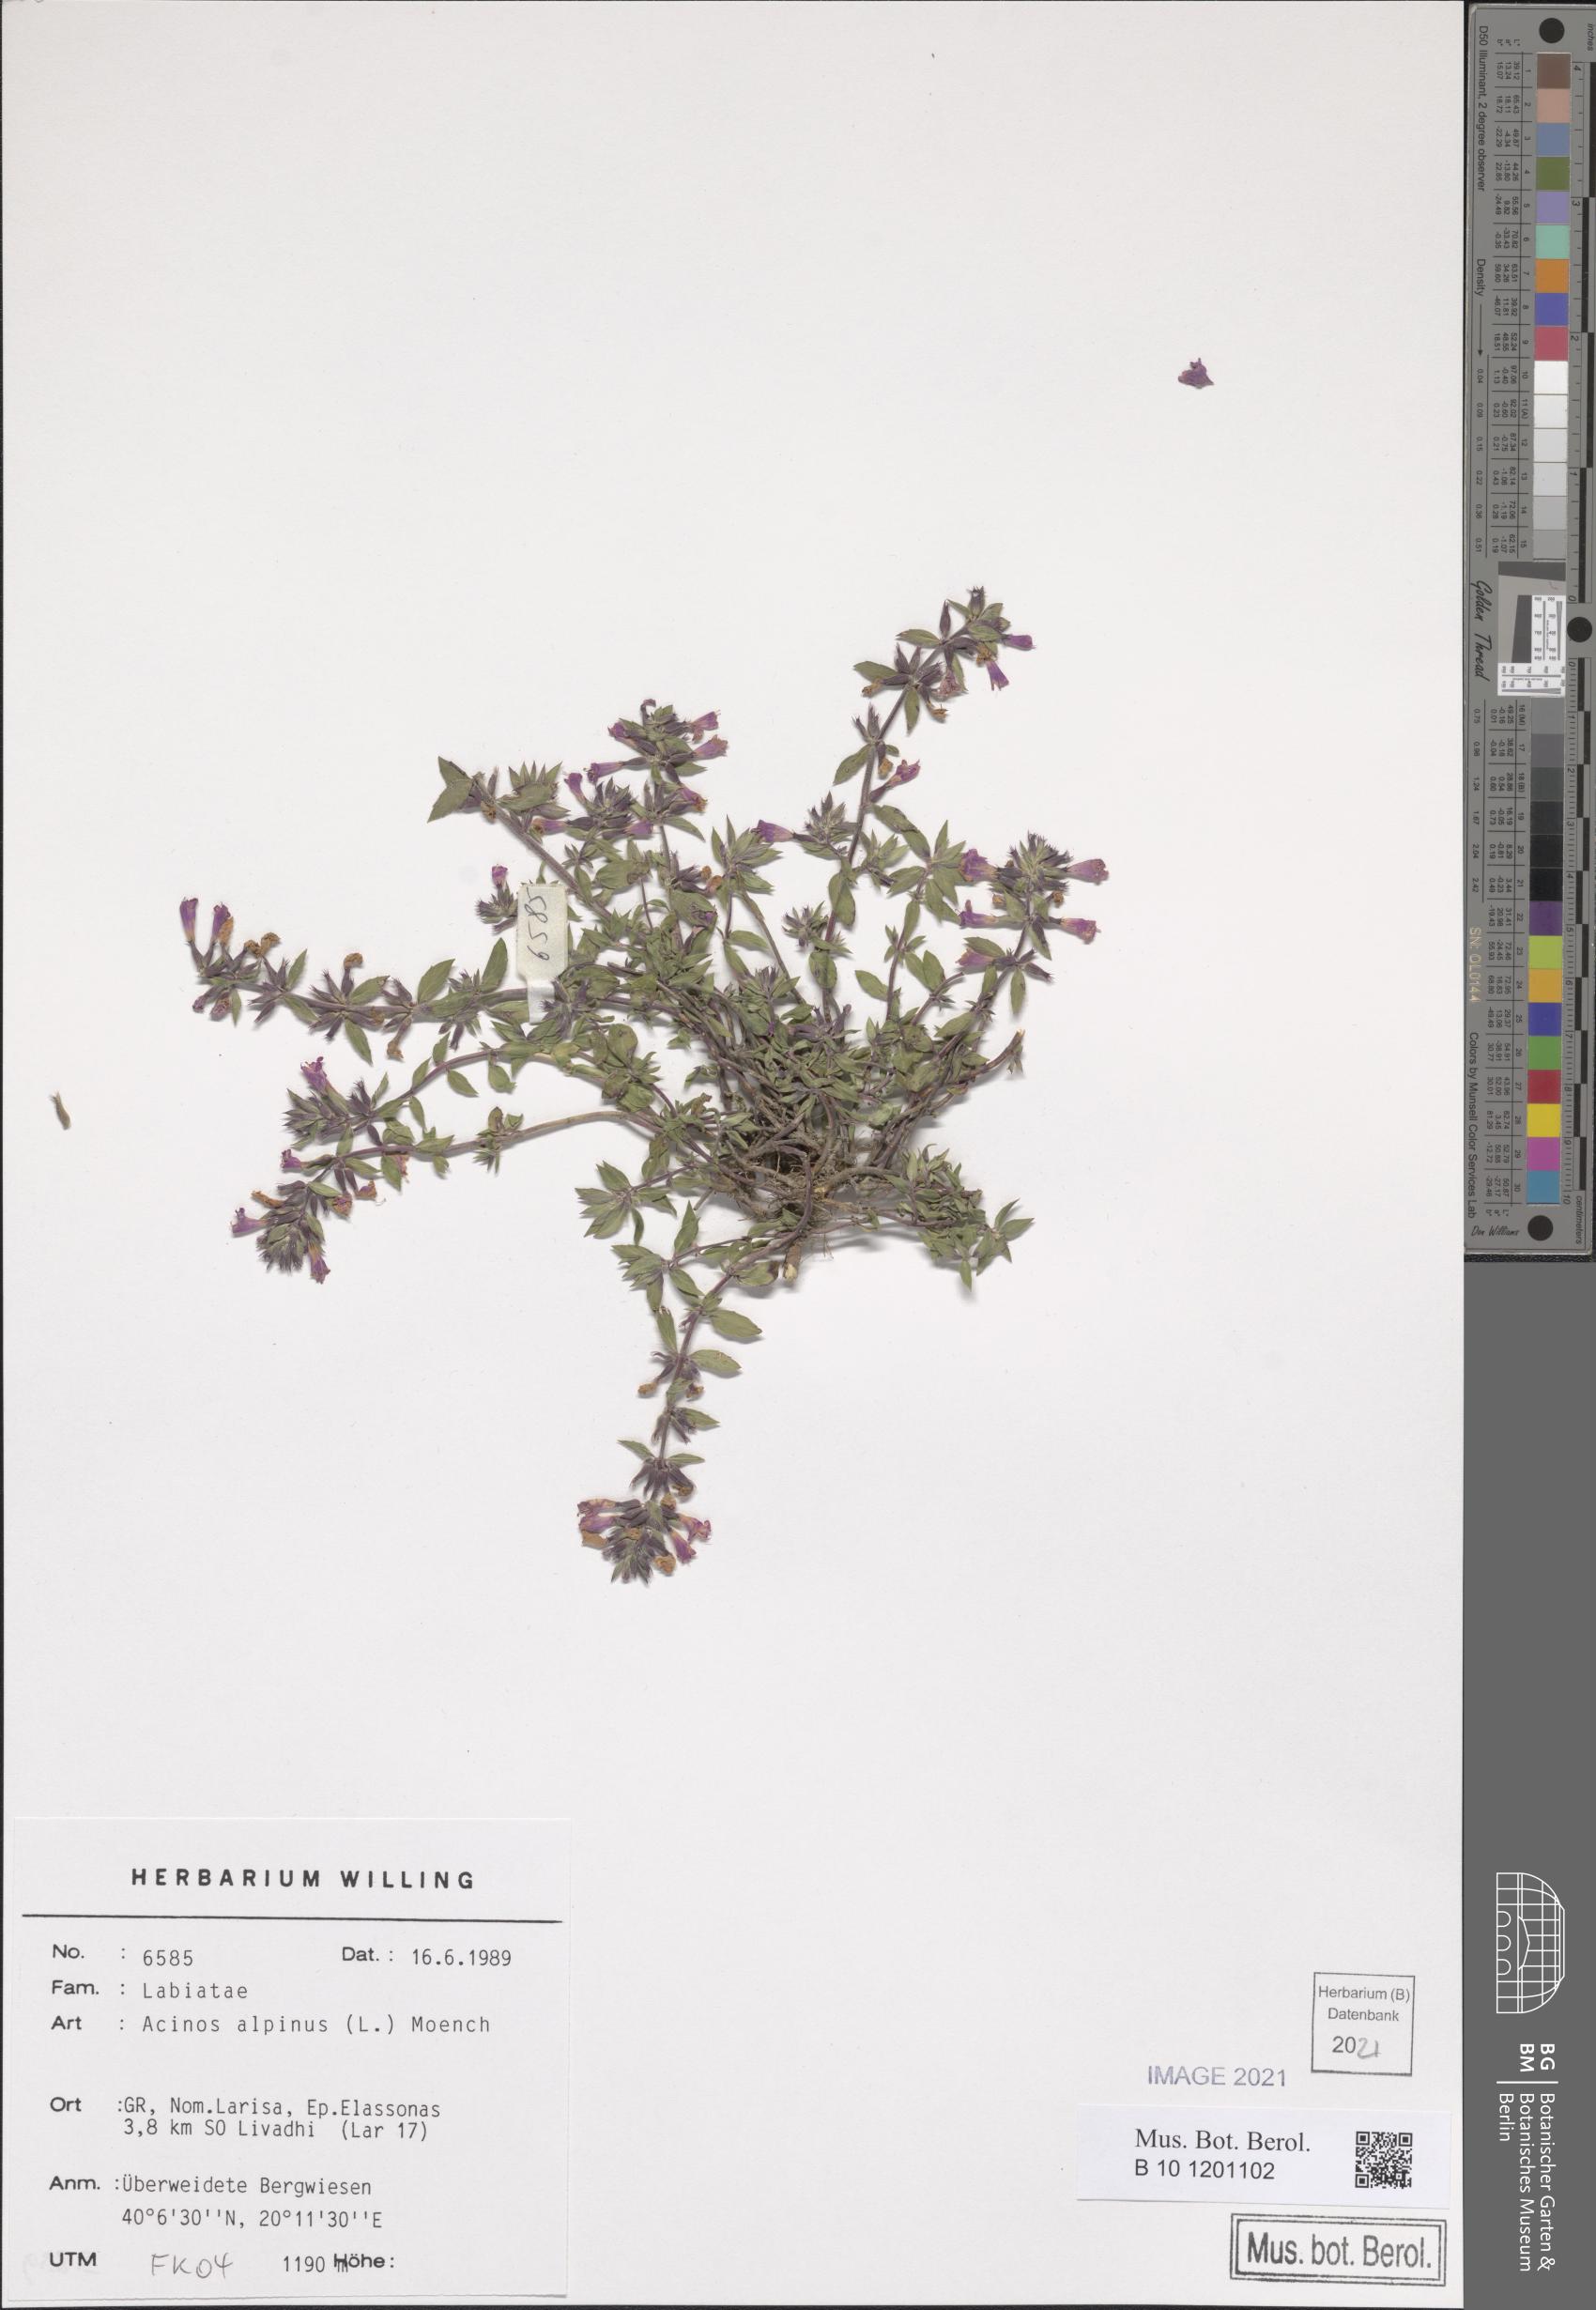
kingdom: Plantae
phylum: Tracheophyta
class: Magnoliopsida
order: Lamiales
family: Lamiaceae
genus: Clinopodium
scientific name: Clinopodium alpinum
